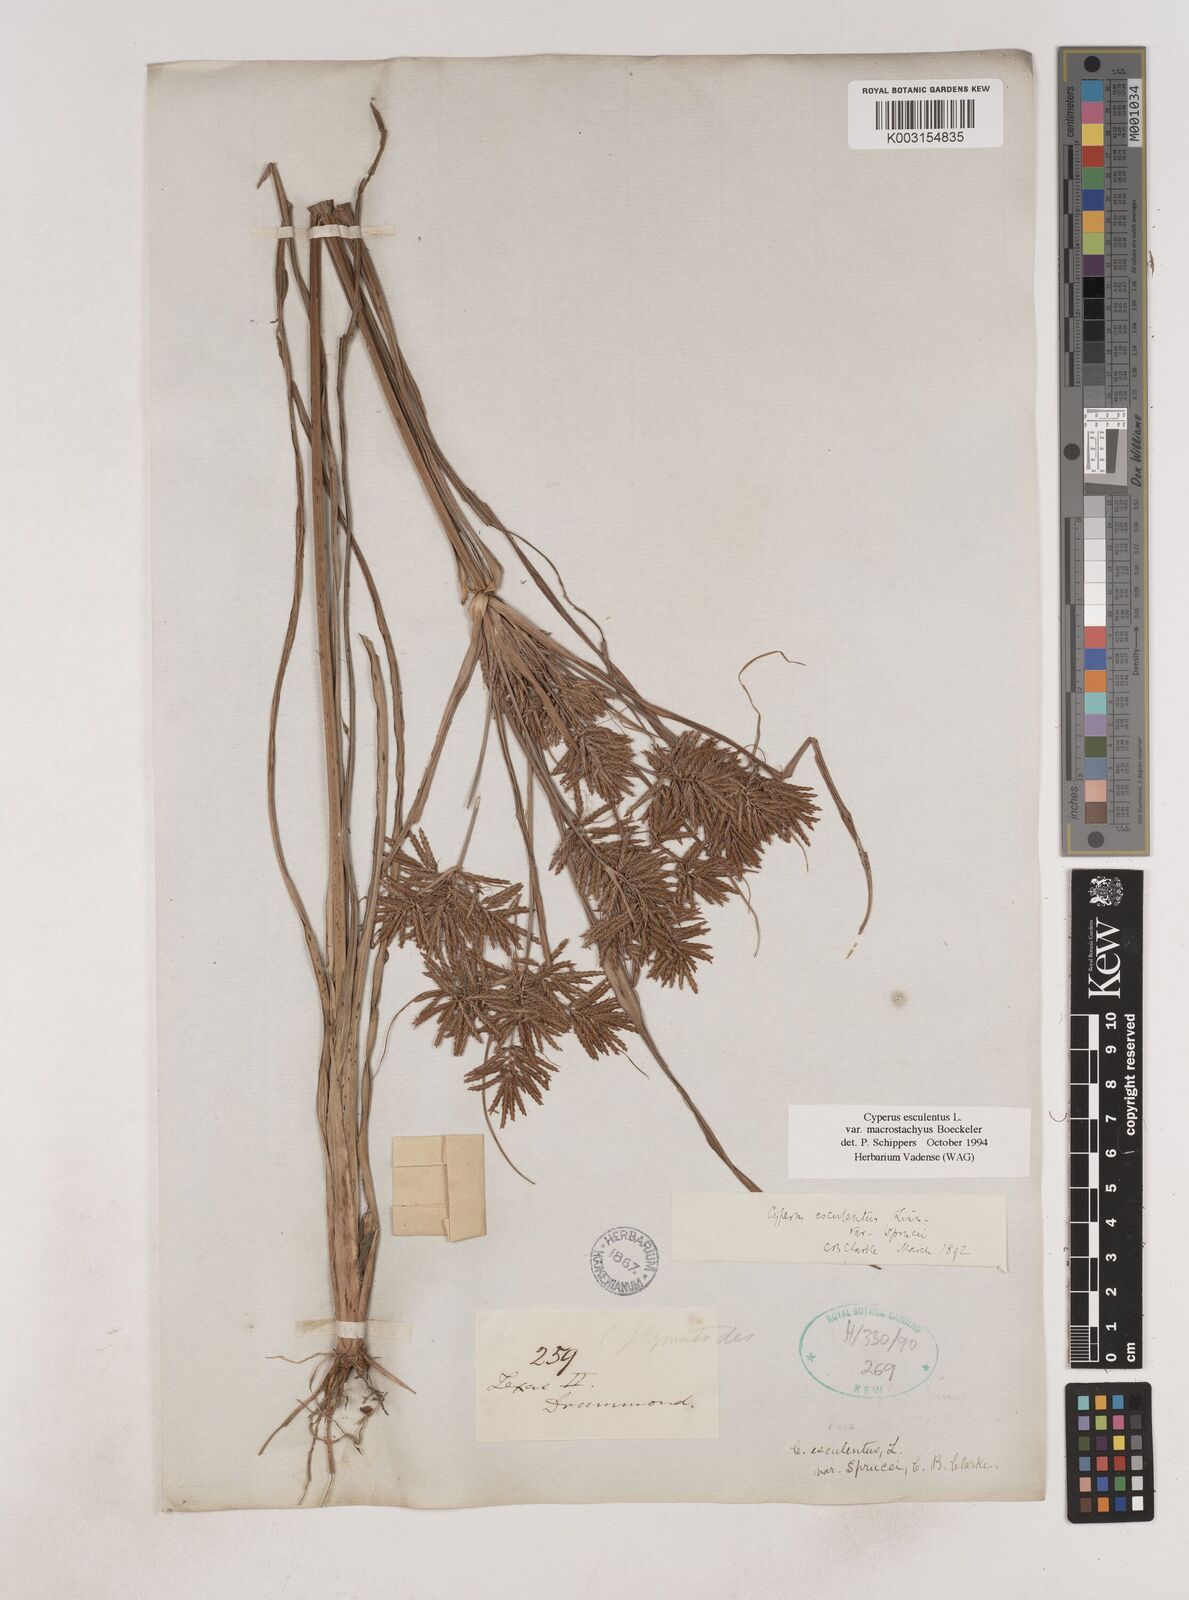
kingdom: Plantae
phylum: Tracheophyta
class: Liliopsida
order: Poales
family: Cyperaceae
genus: Cyperus
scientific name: Cyperus esculentus
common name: Yellow nutsedge
